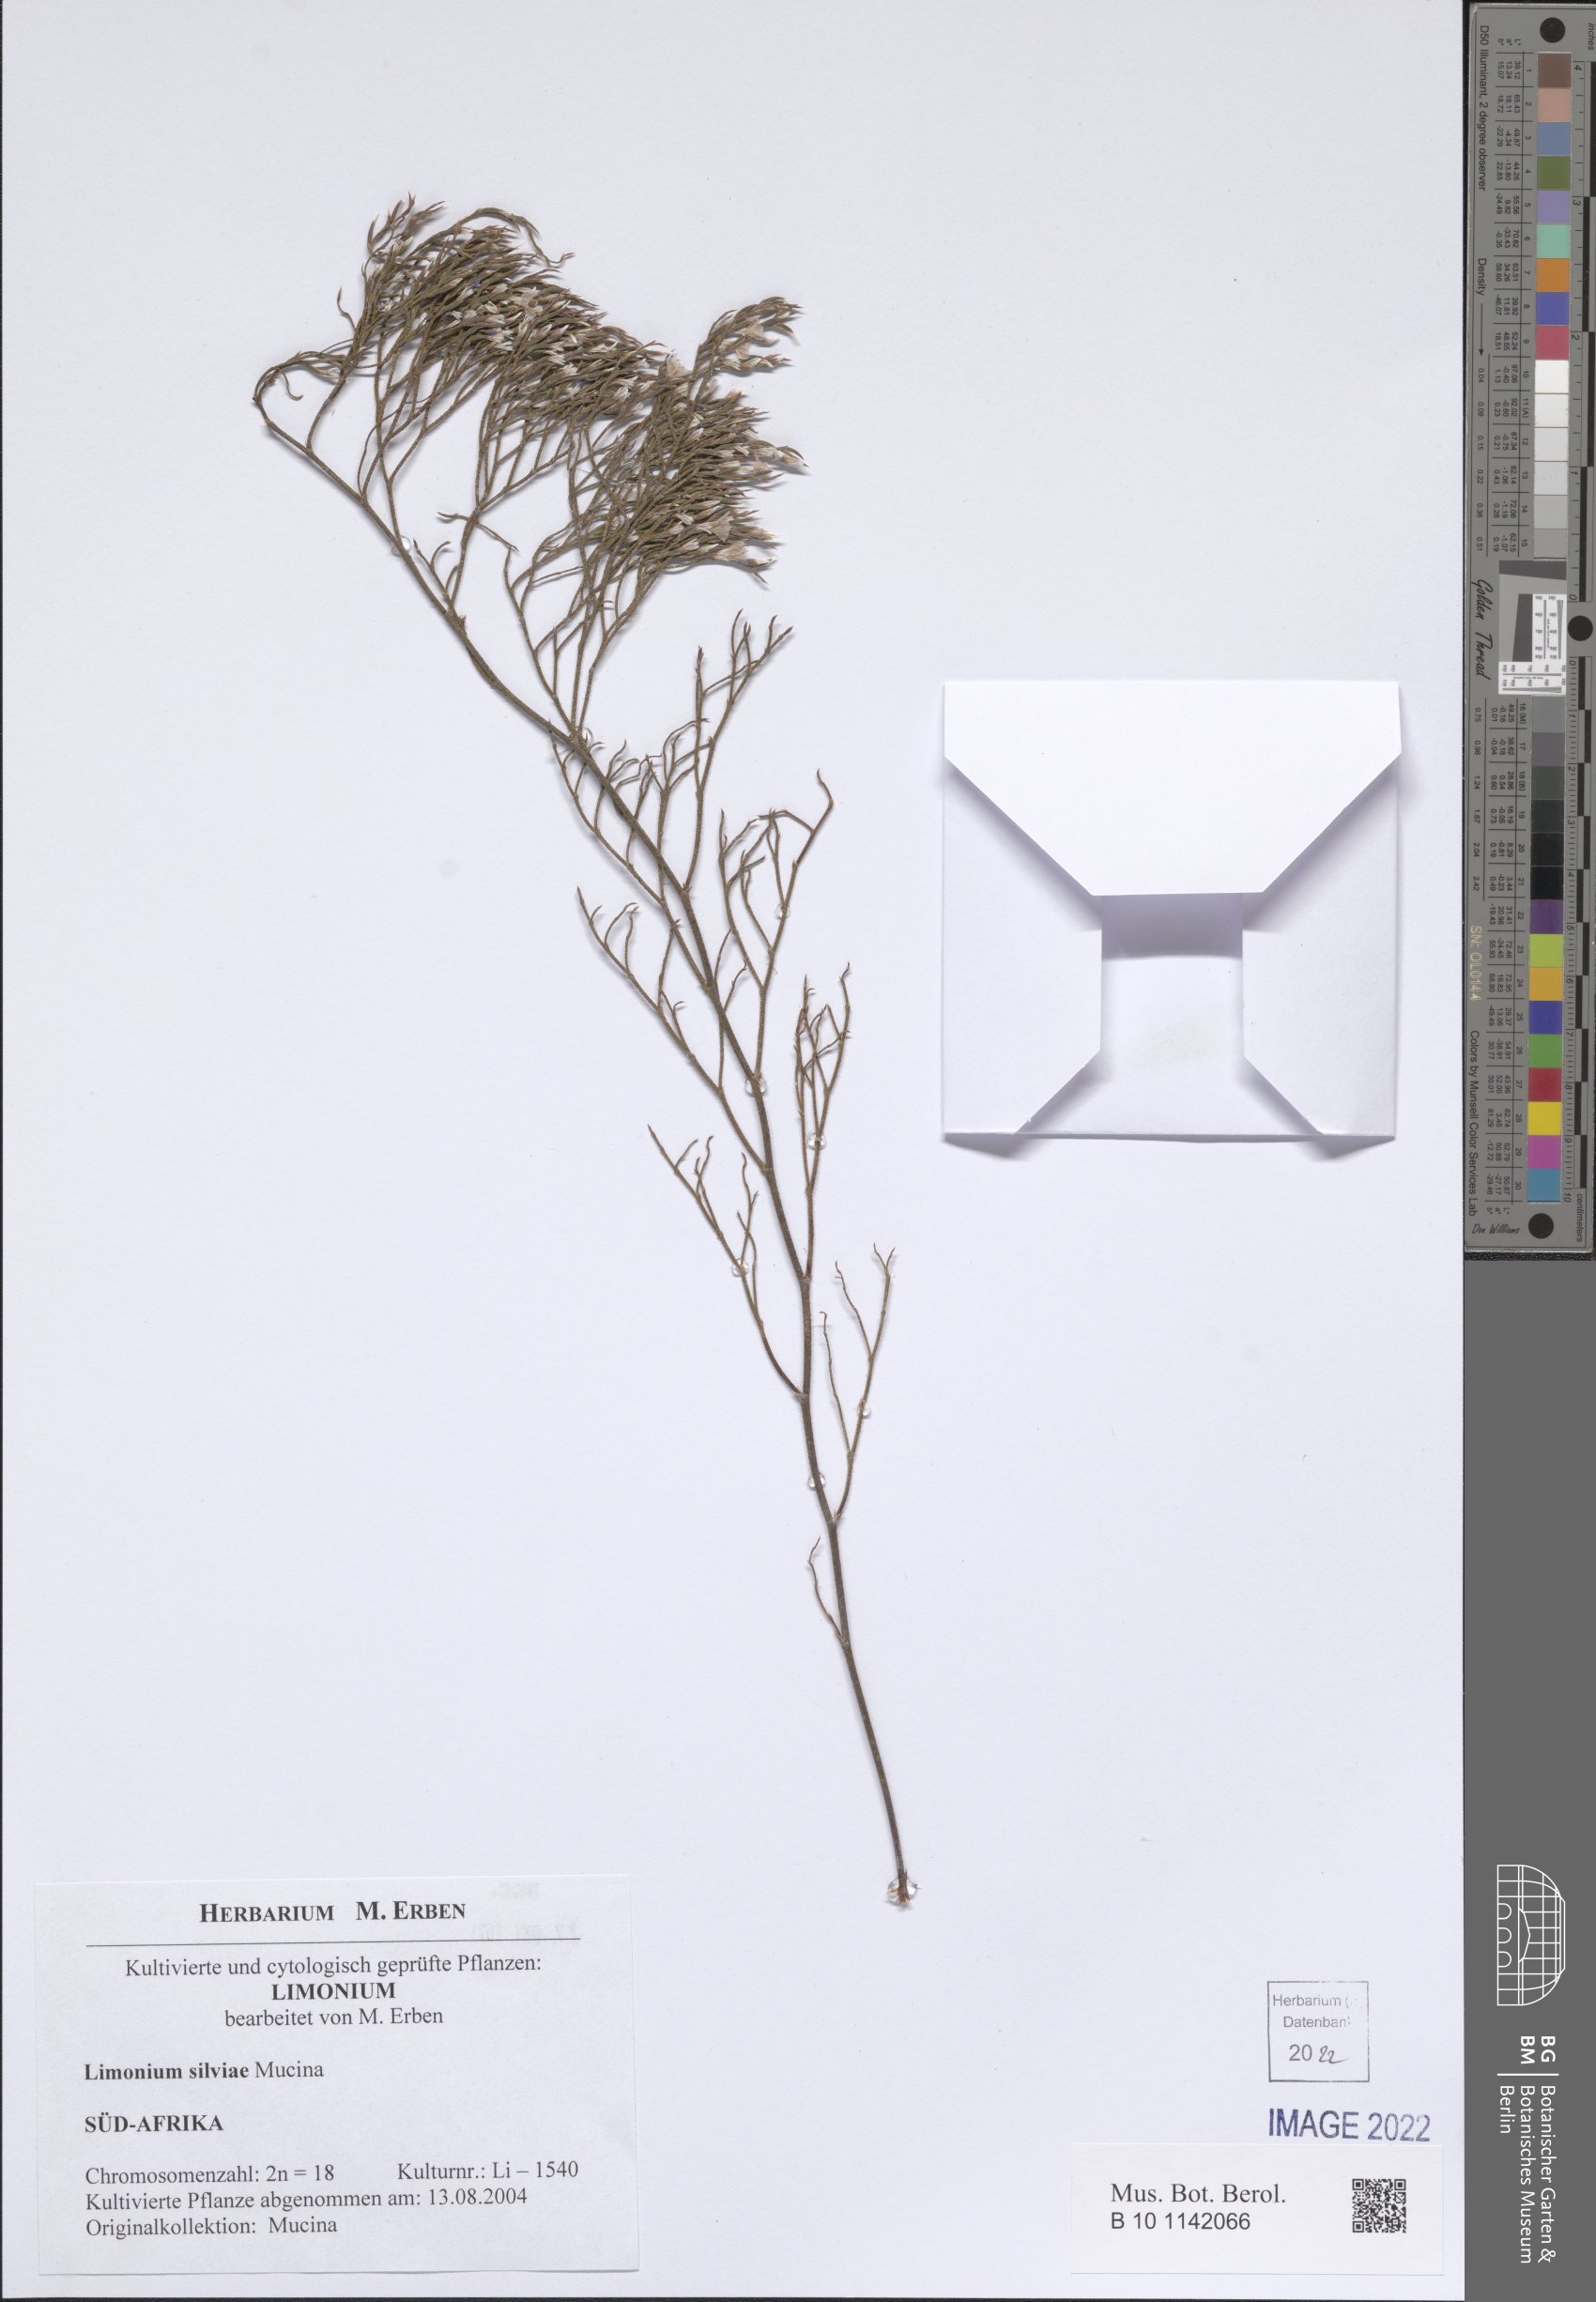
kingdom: Plantae
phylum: Tracheophyta
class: Magnoliopsida
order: Caryophyllales
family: Plumbaginaceae
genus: Limonium
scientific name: Limonium
